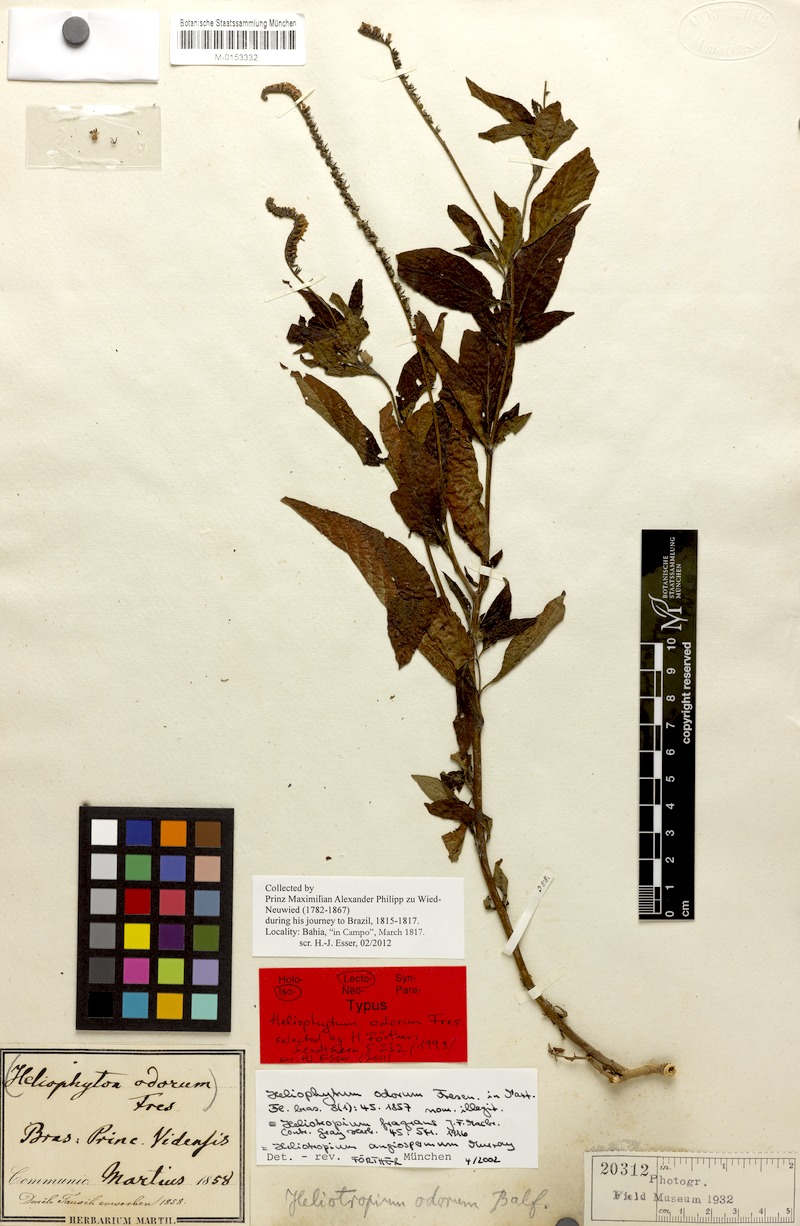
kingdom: Plantae
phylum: Tracheophyta
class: Magnoliopsida
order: Boraginales
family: Heliotropiaceae
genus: Heliotropium
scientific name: Heliotropium angiospermum
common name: Eye bright
